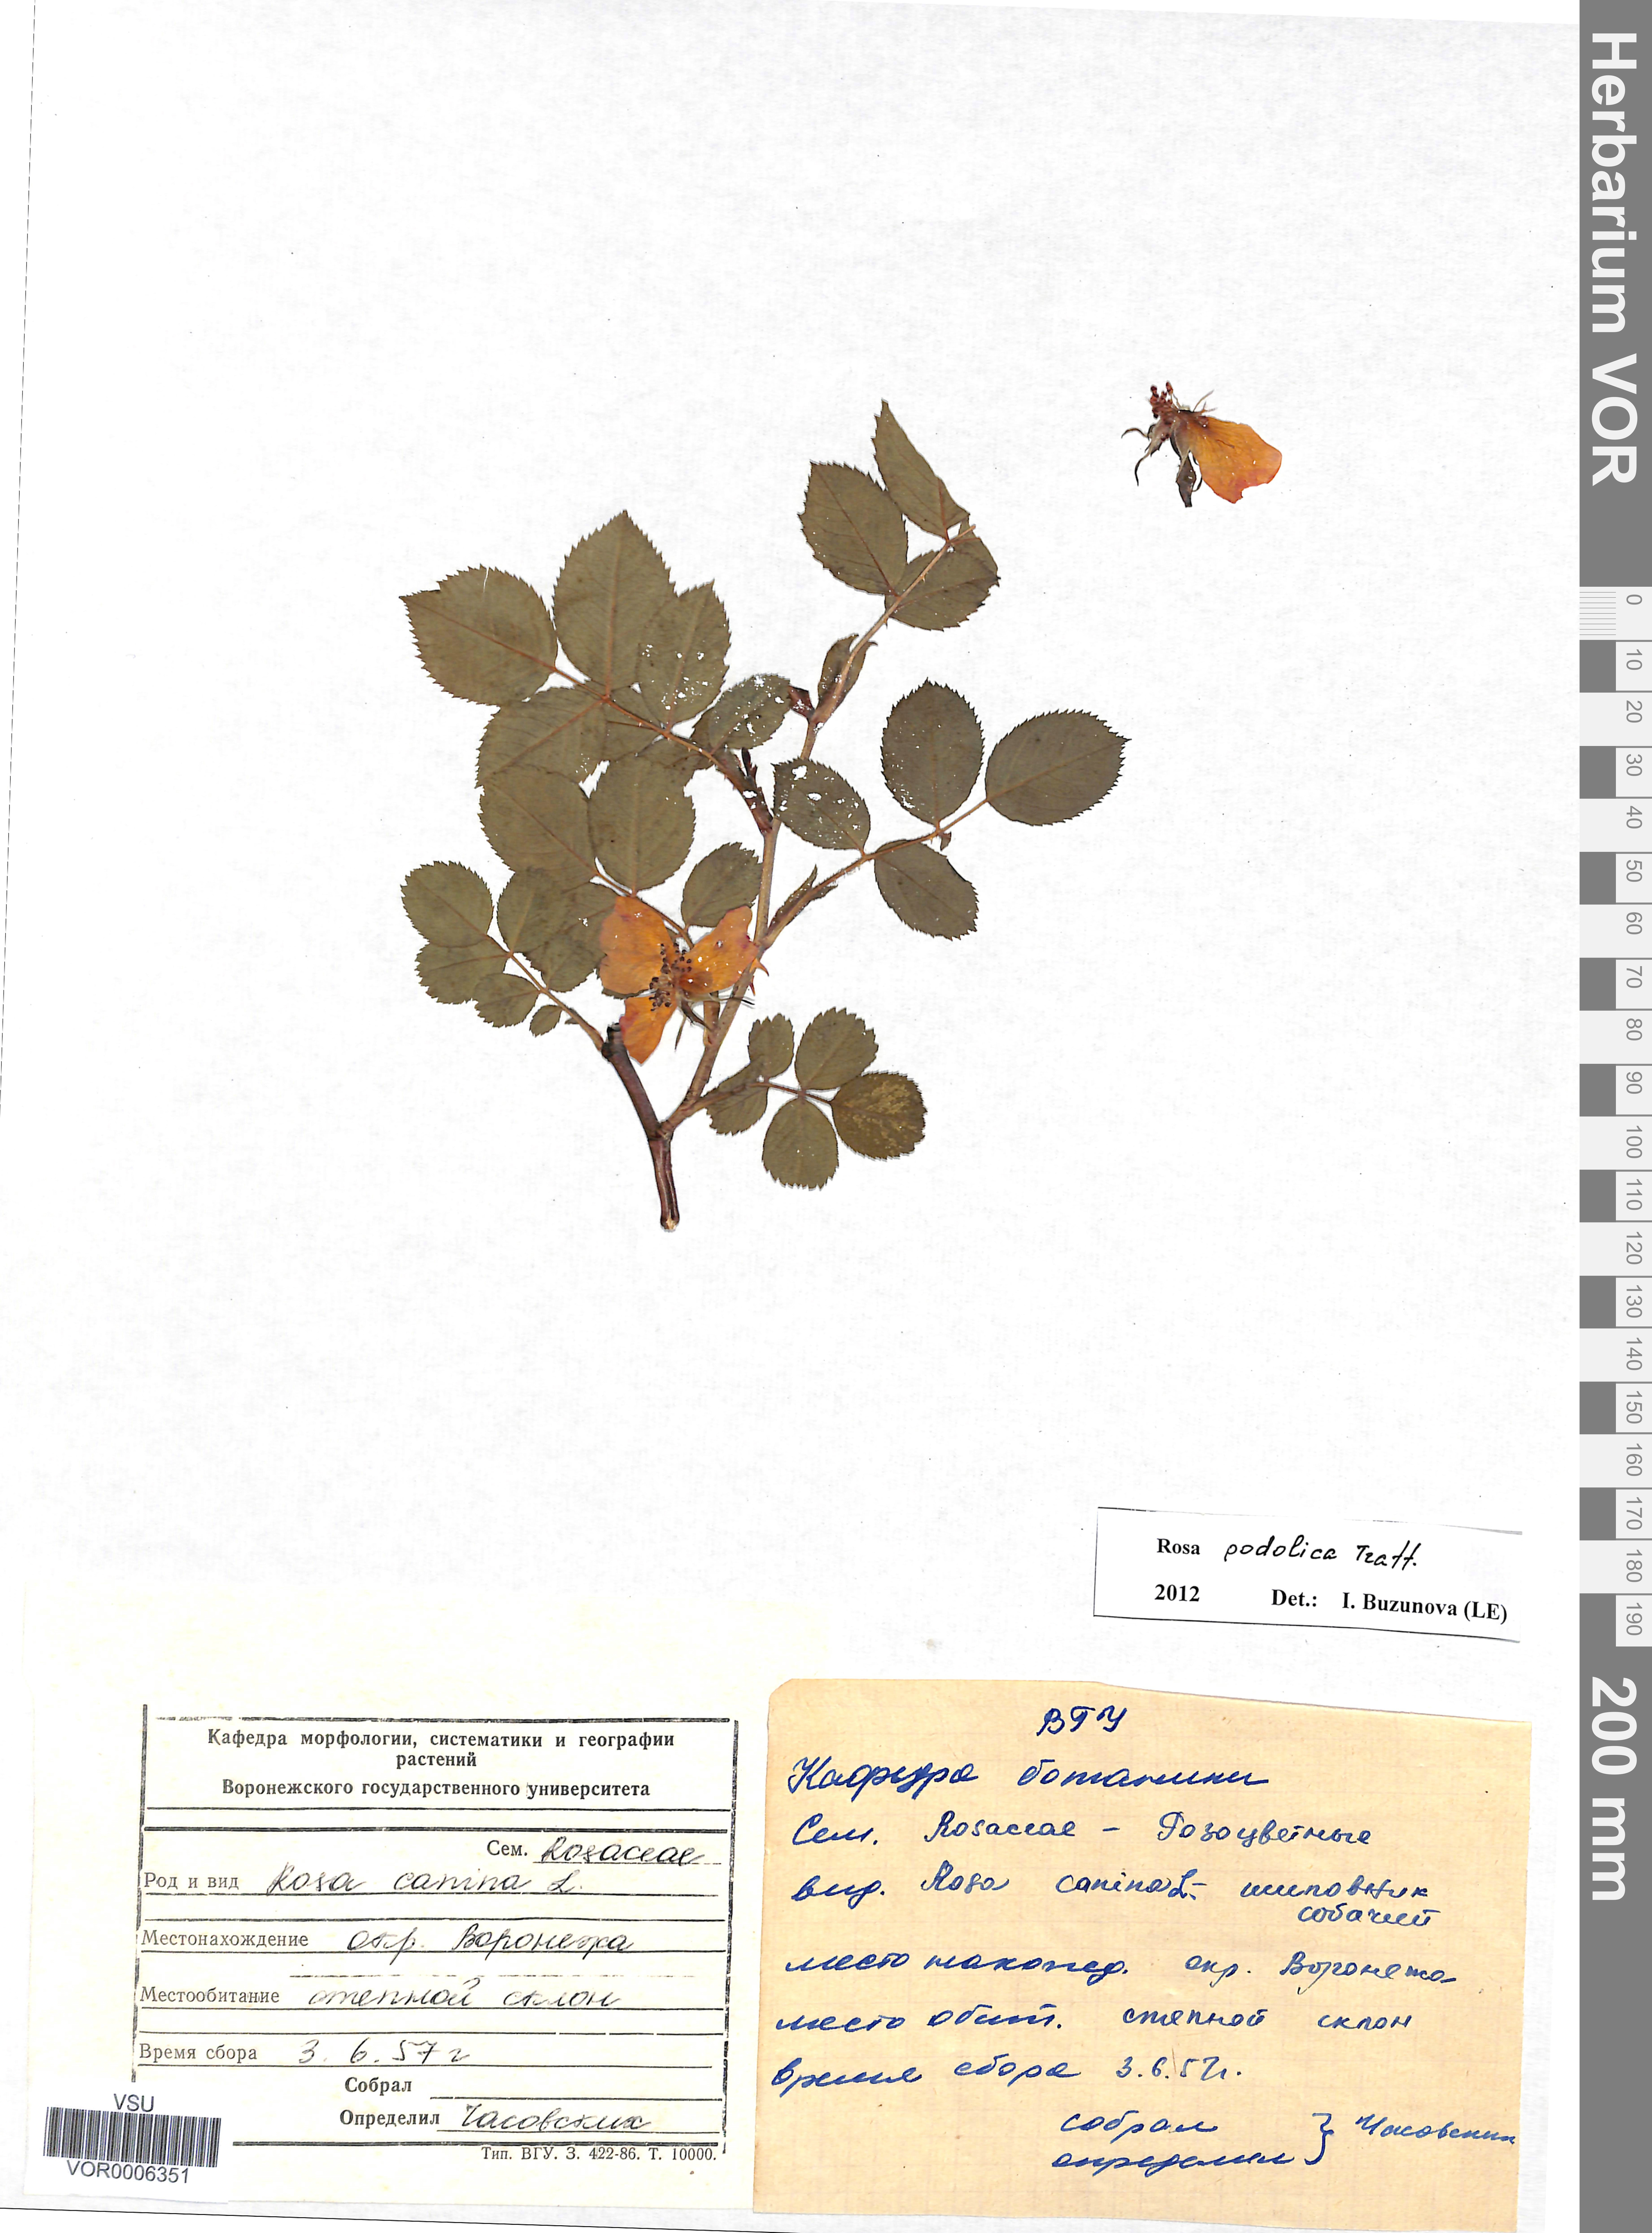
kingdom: Plantae
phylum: Tracheophyta
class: Magnoliopsida
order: Rosales
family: Rosaceae
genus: Rosa
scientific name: Rosa tomentosa
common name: Downy rose
